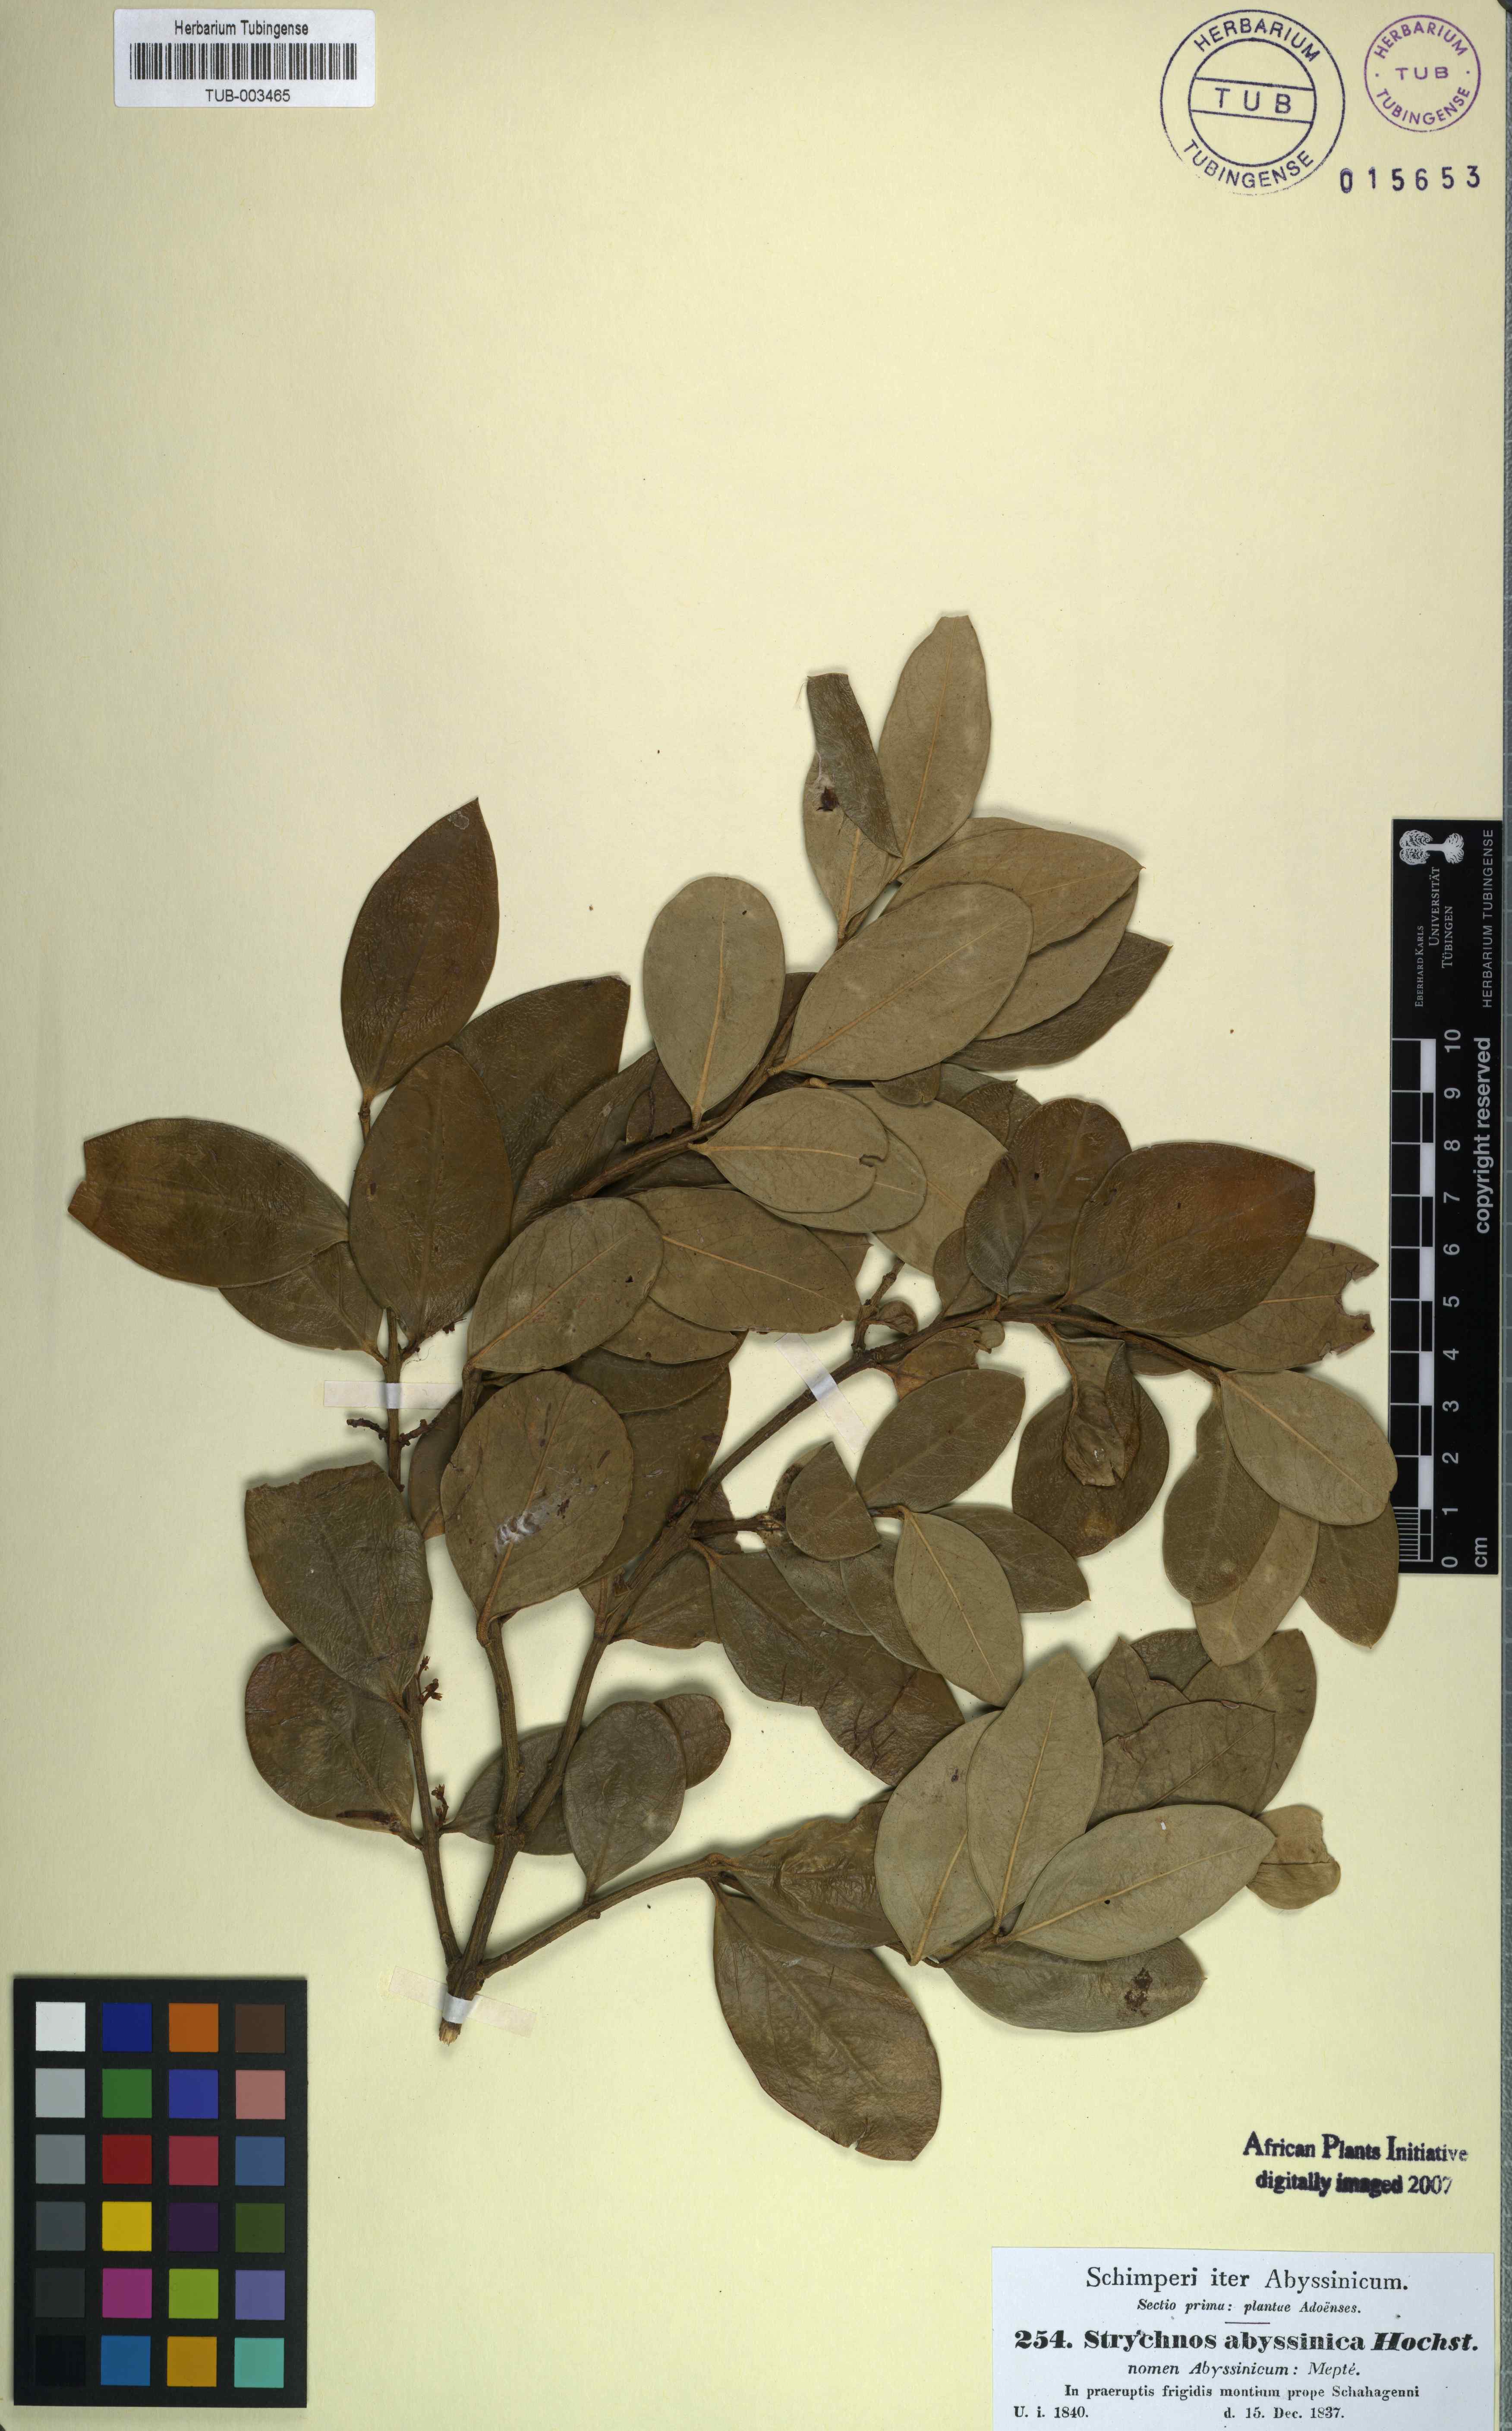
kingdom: Plantae
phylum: Tracheophyta
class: Magnoliopsida
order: Gentianales
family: Apocynaceae
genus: Carissa
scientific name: Carissa
